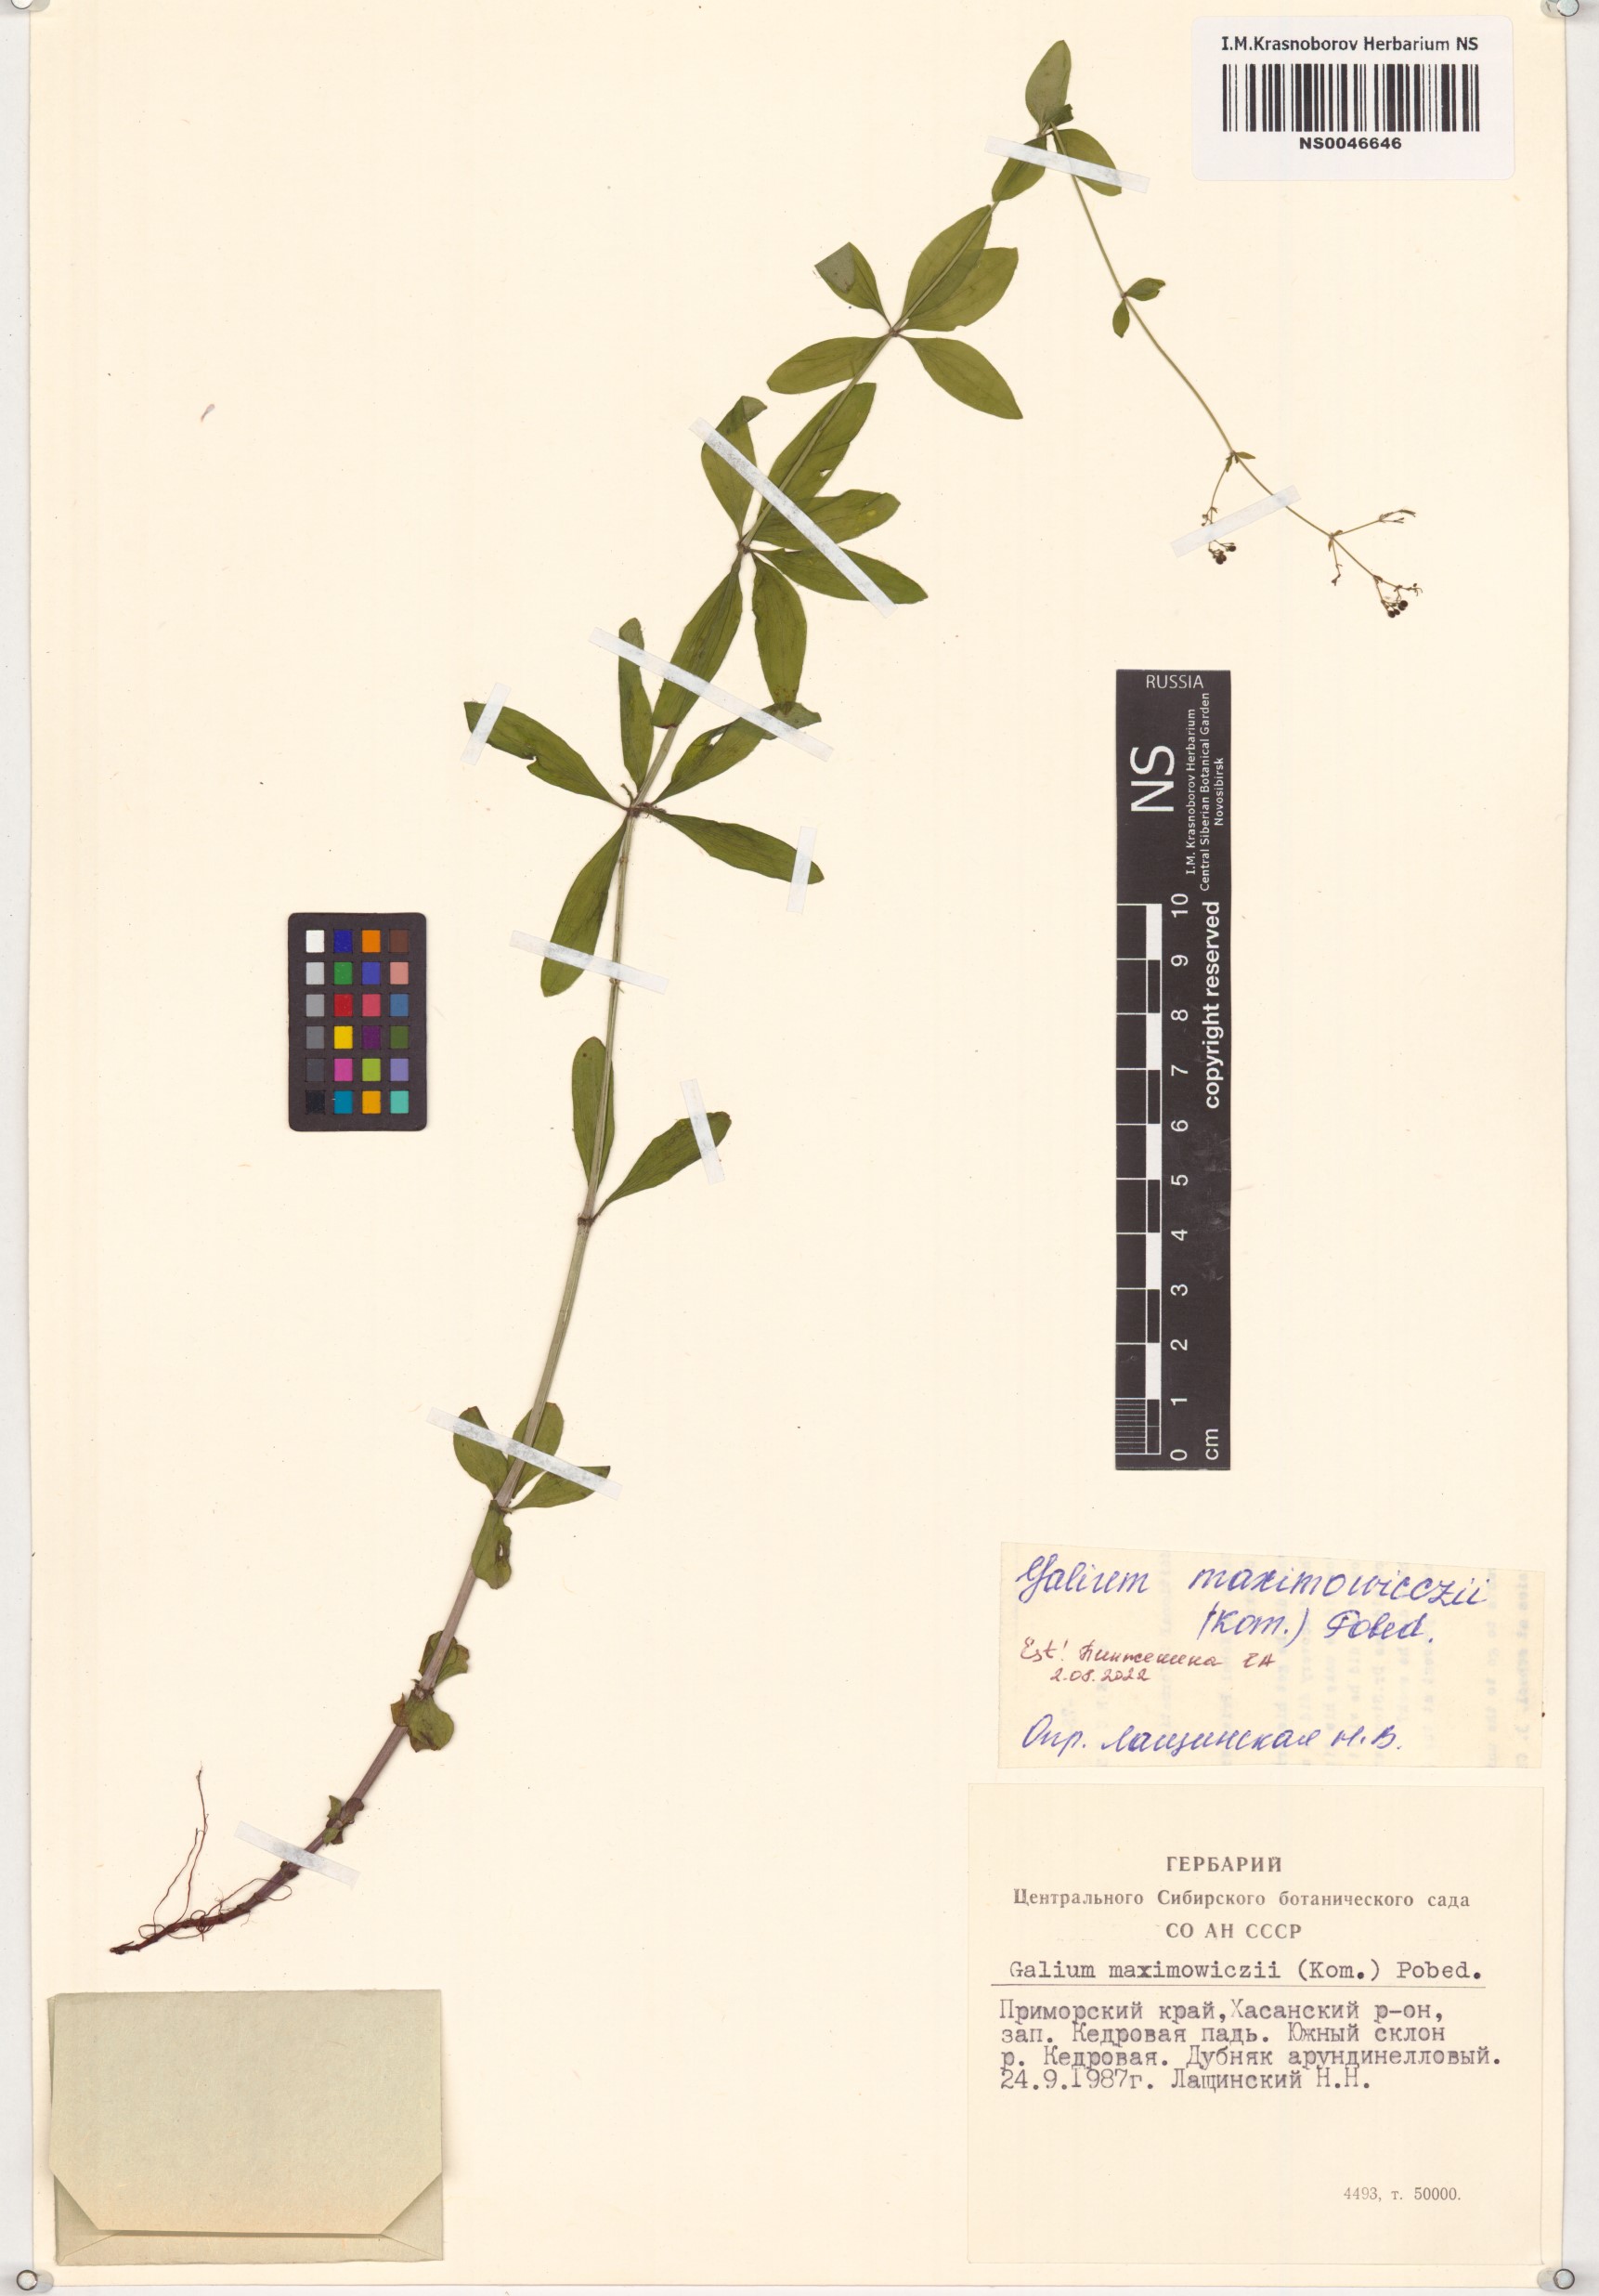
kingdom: Plantae
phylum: Tracheophyta
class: Magnoliopsida
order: Gentianales
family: Rubiaceae
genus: Galium
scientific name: Galium maximoviczii
